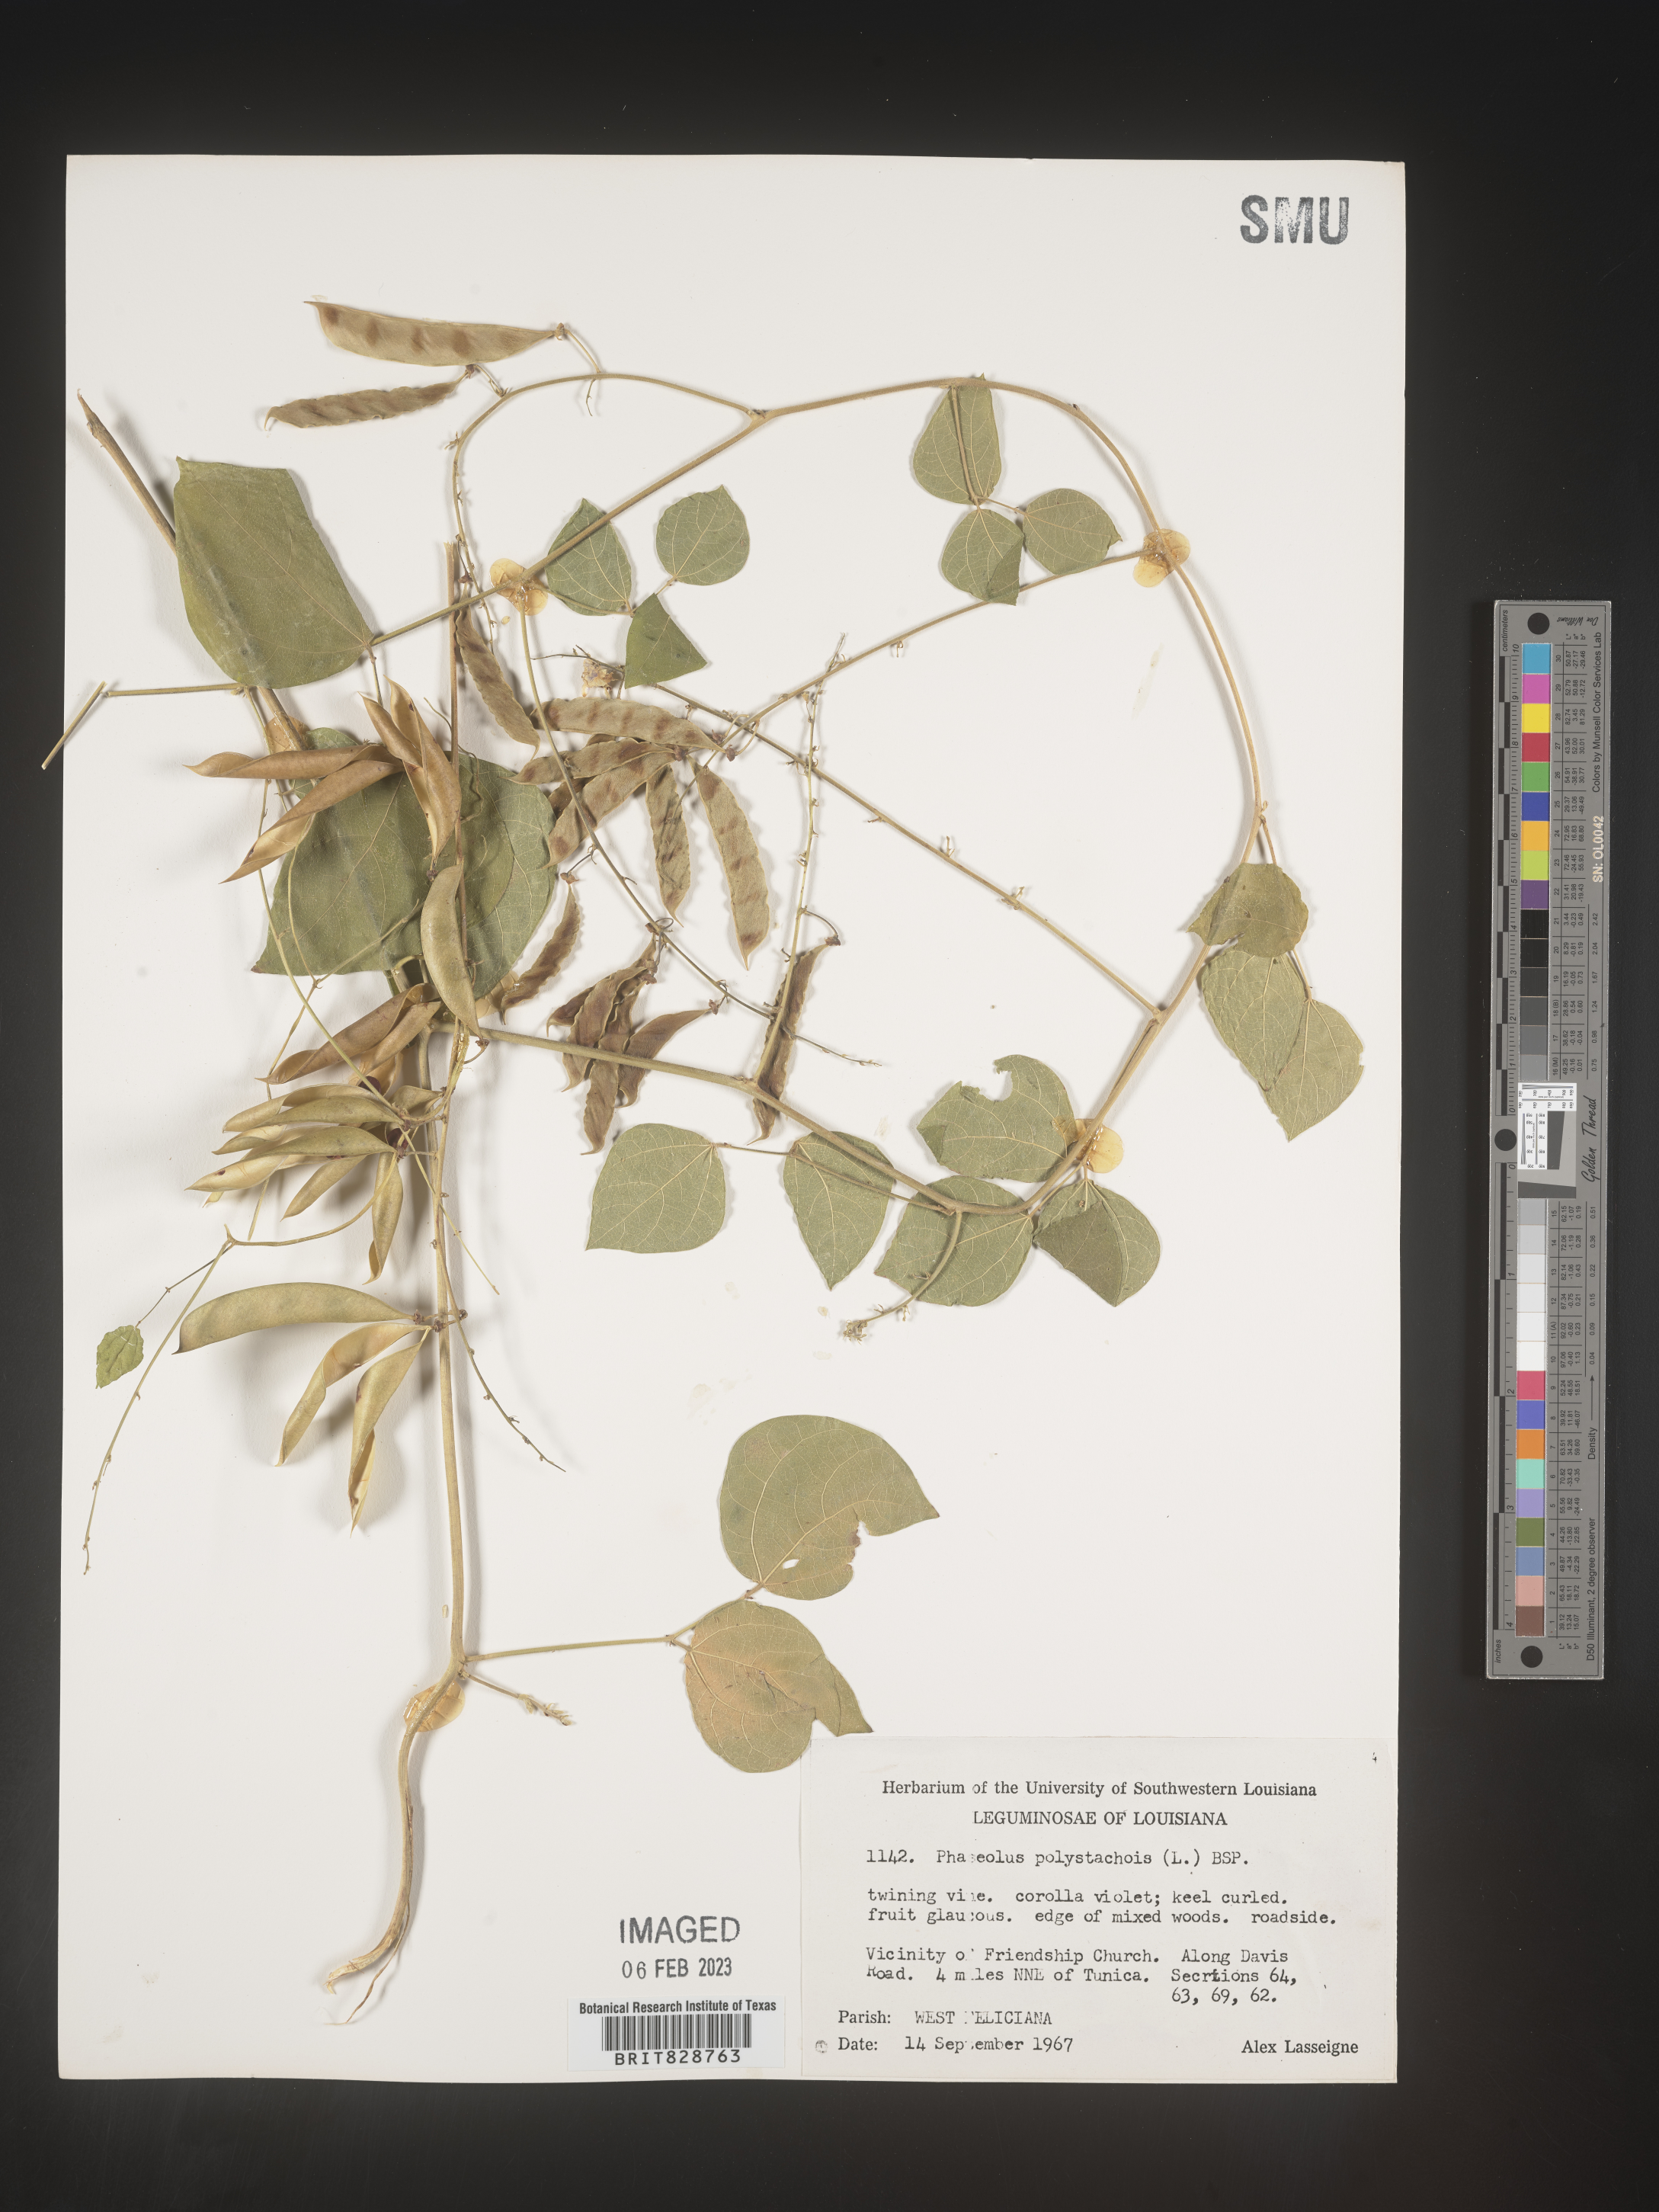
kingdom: Plantae
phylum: Tracheophyta
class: Magnoliopsida
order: Fabales
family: Fabaceae
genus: Phaseolus
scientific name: Phaseolus polystachios
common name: Thicket bean
